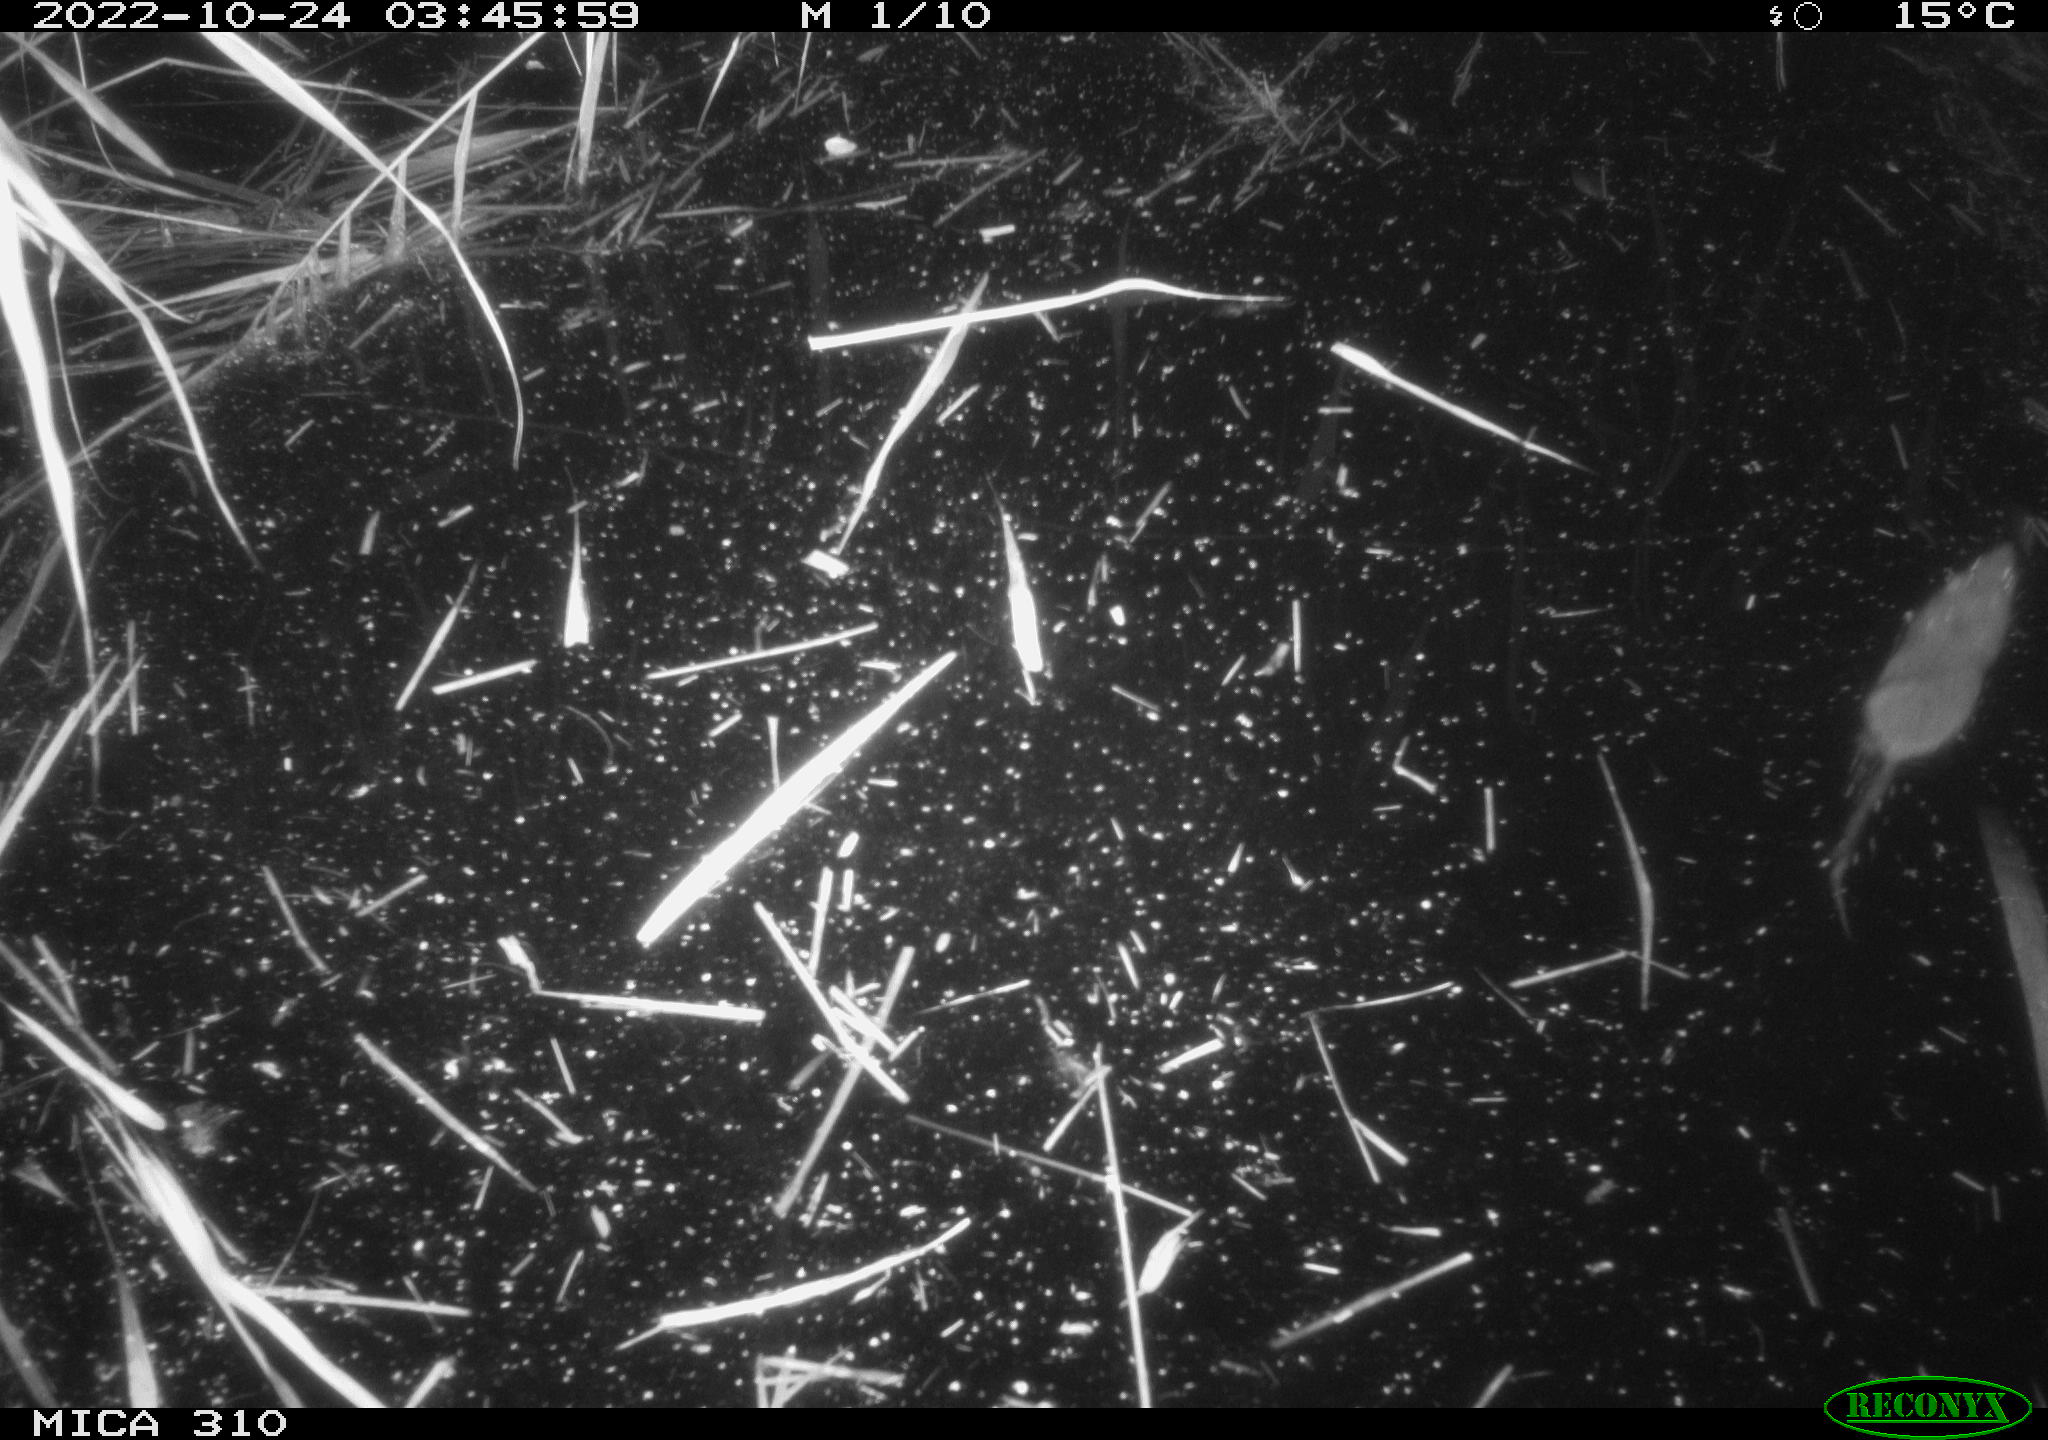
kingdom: Animalia
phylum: Chordata
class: Mammalia
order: Rodentia
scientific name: Rodentia
